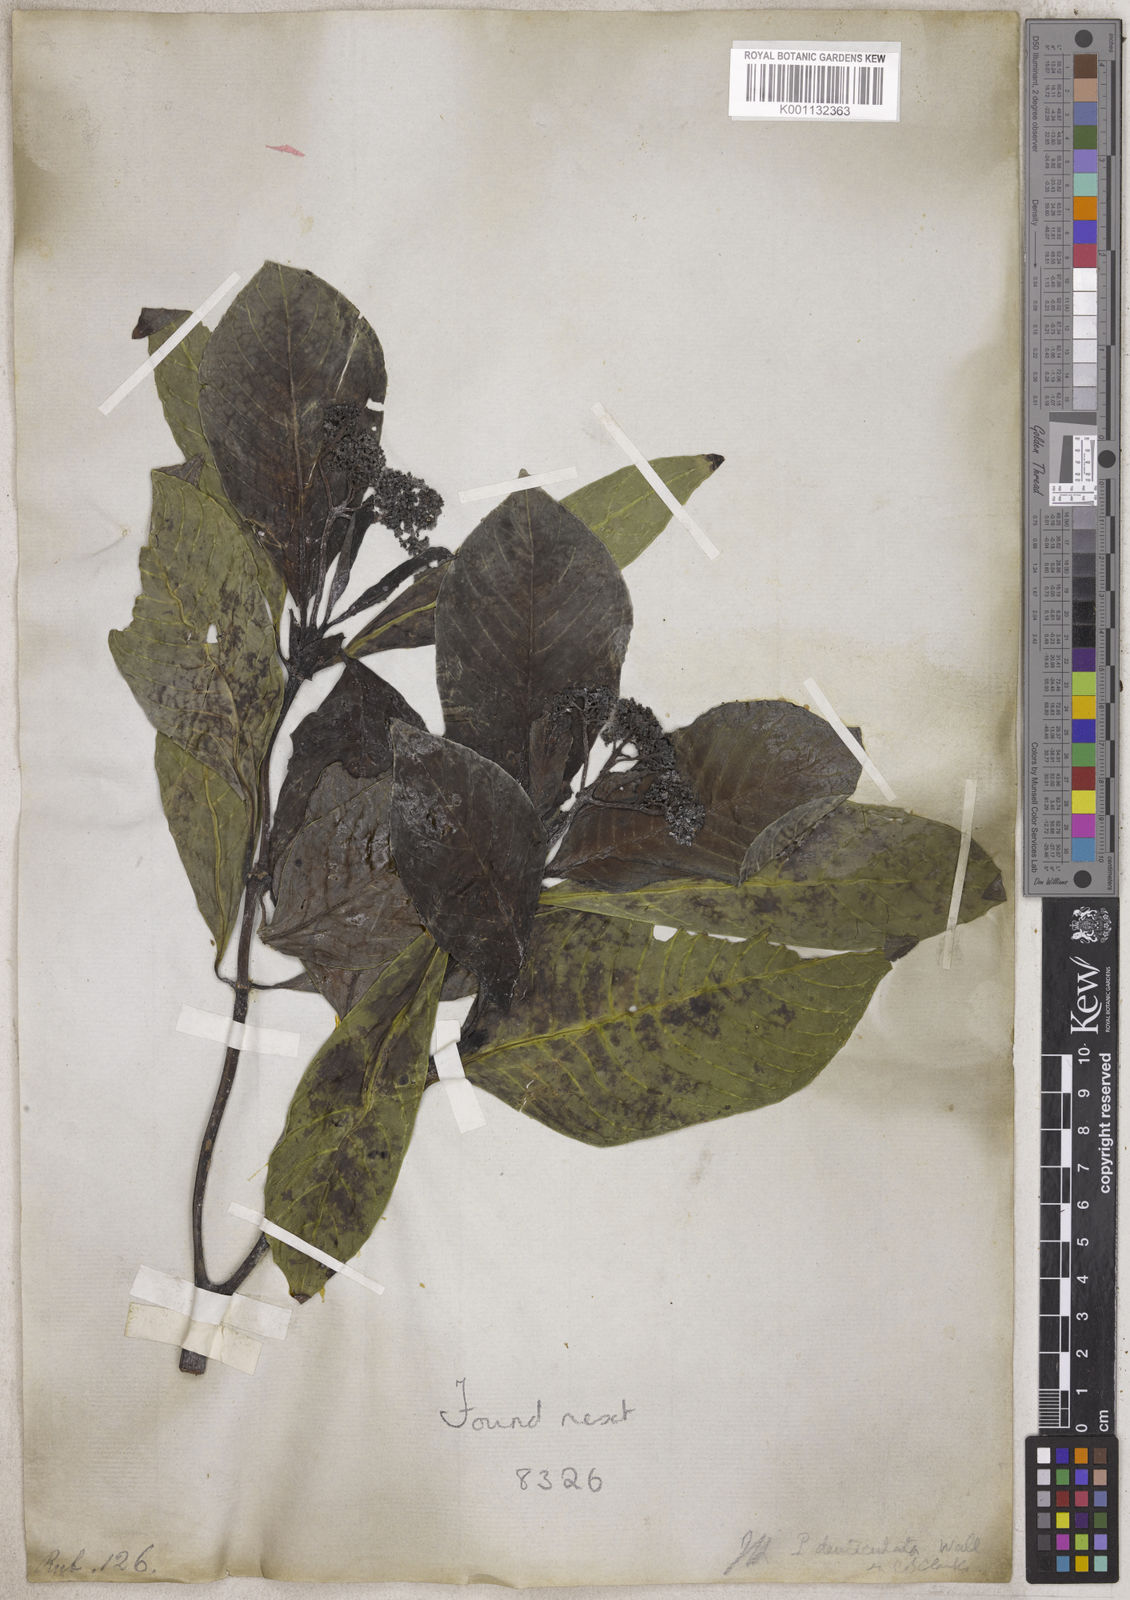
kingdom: Plantae
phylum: Tracheophyta
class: Magnoliopsida
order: Gentianales
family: Rubiaceae
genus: Psychotria
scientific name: Psychotria
